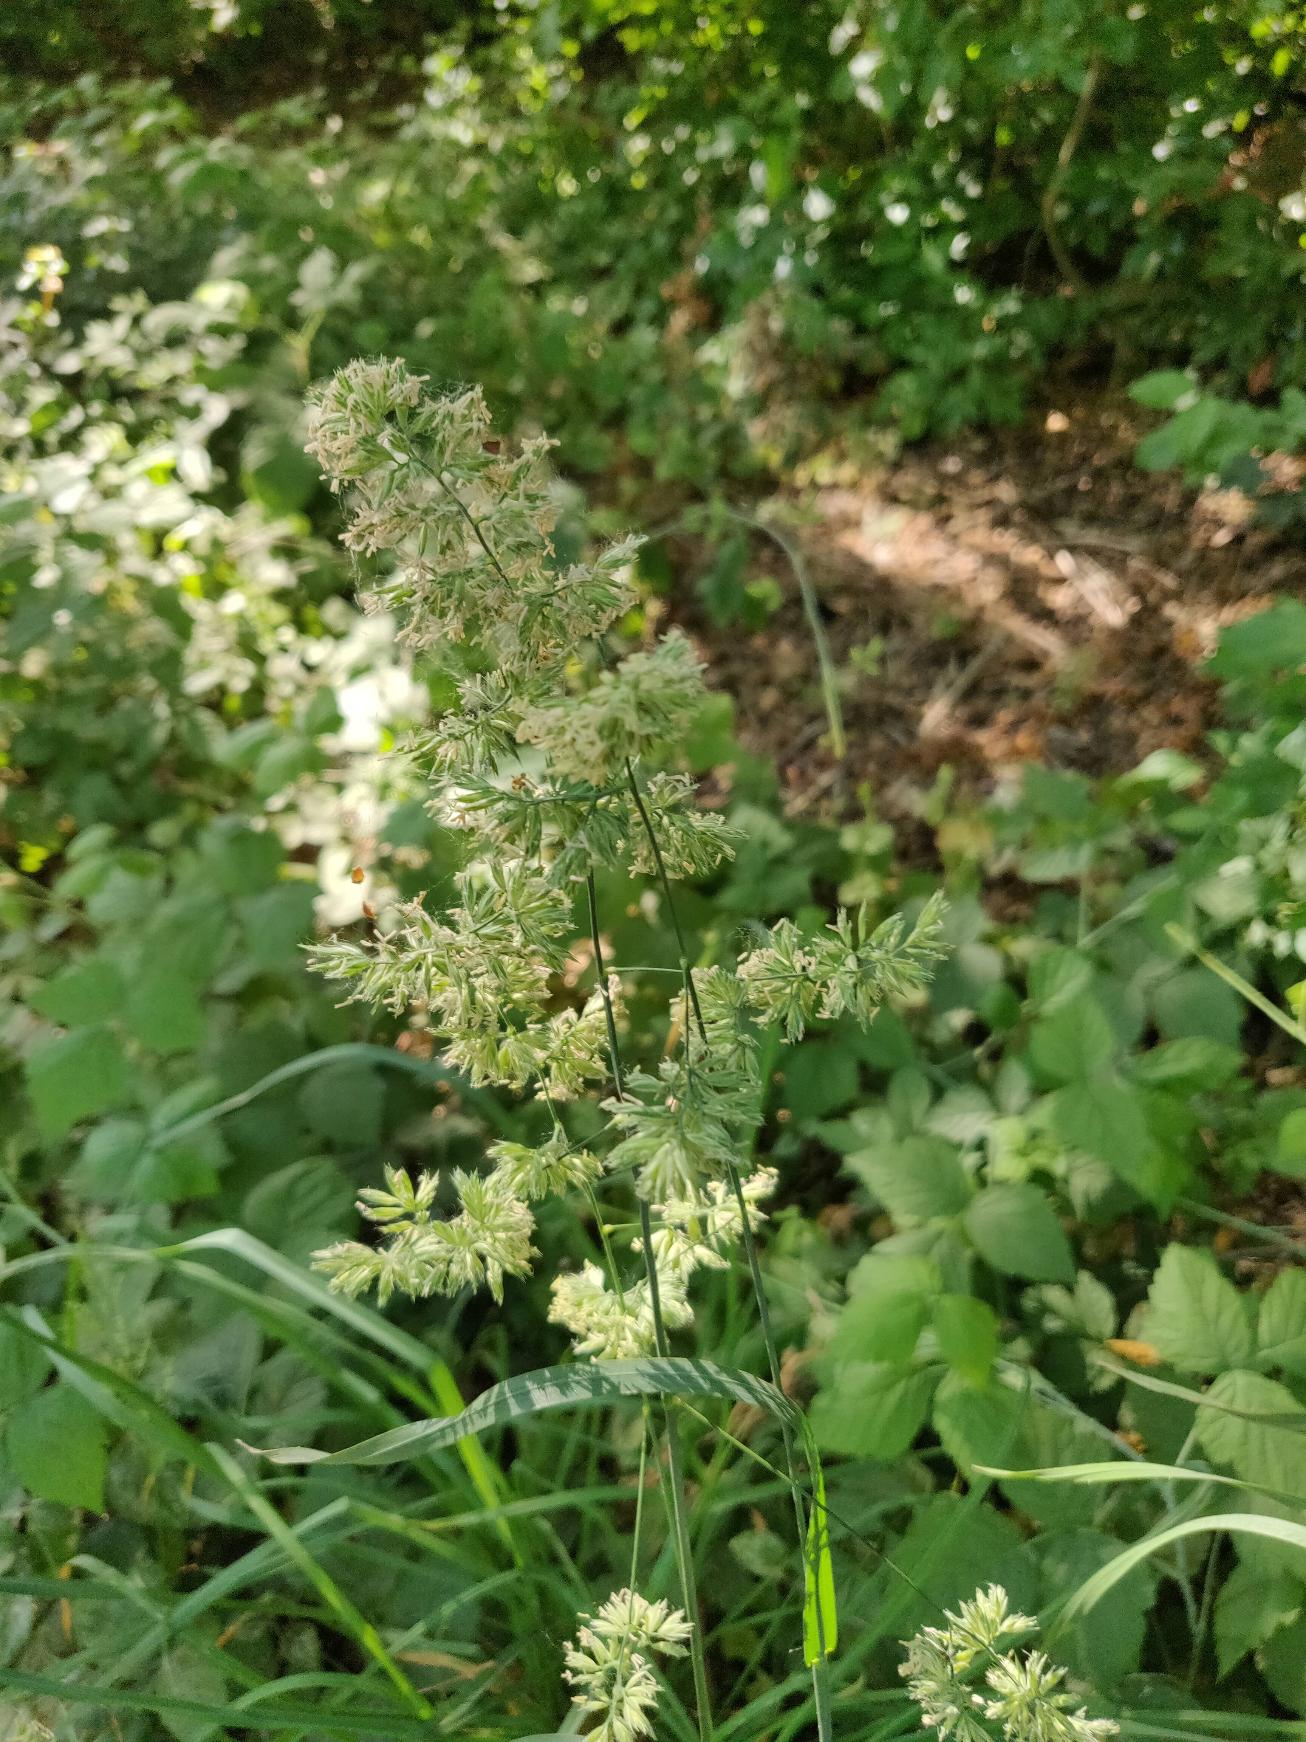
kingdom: Plantae
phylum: Tracheophyta
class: Liliopsida
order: Poales
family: Poaceae
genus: Dactylis
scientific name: Dactylis glomerata
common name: Almindelig hundegræs
